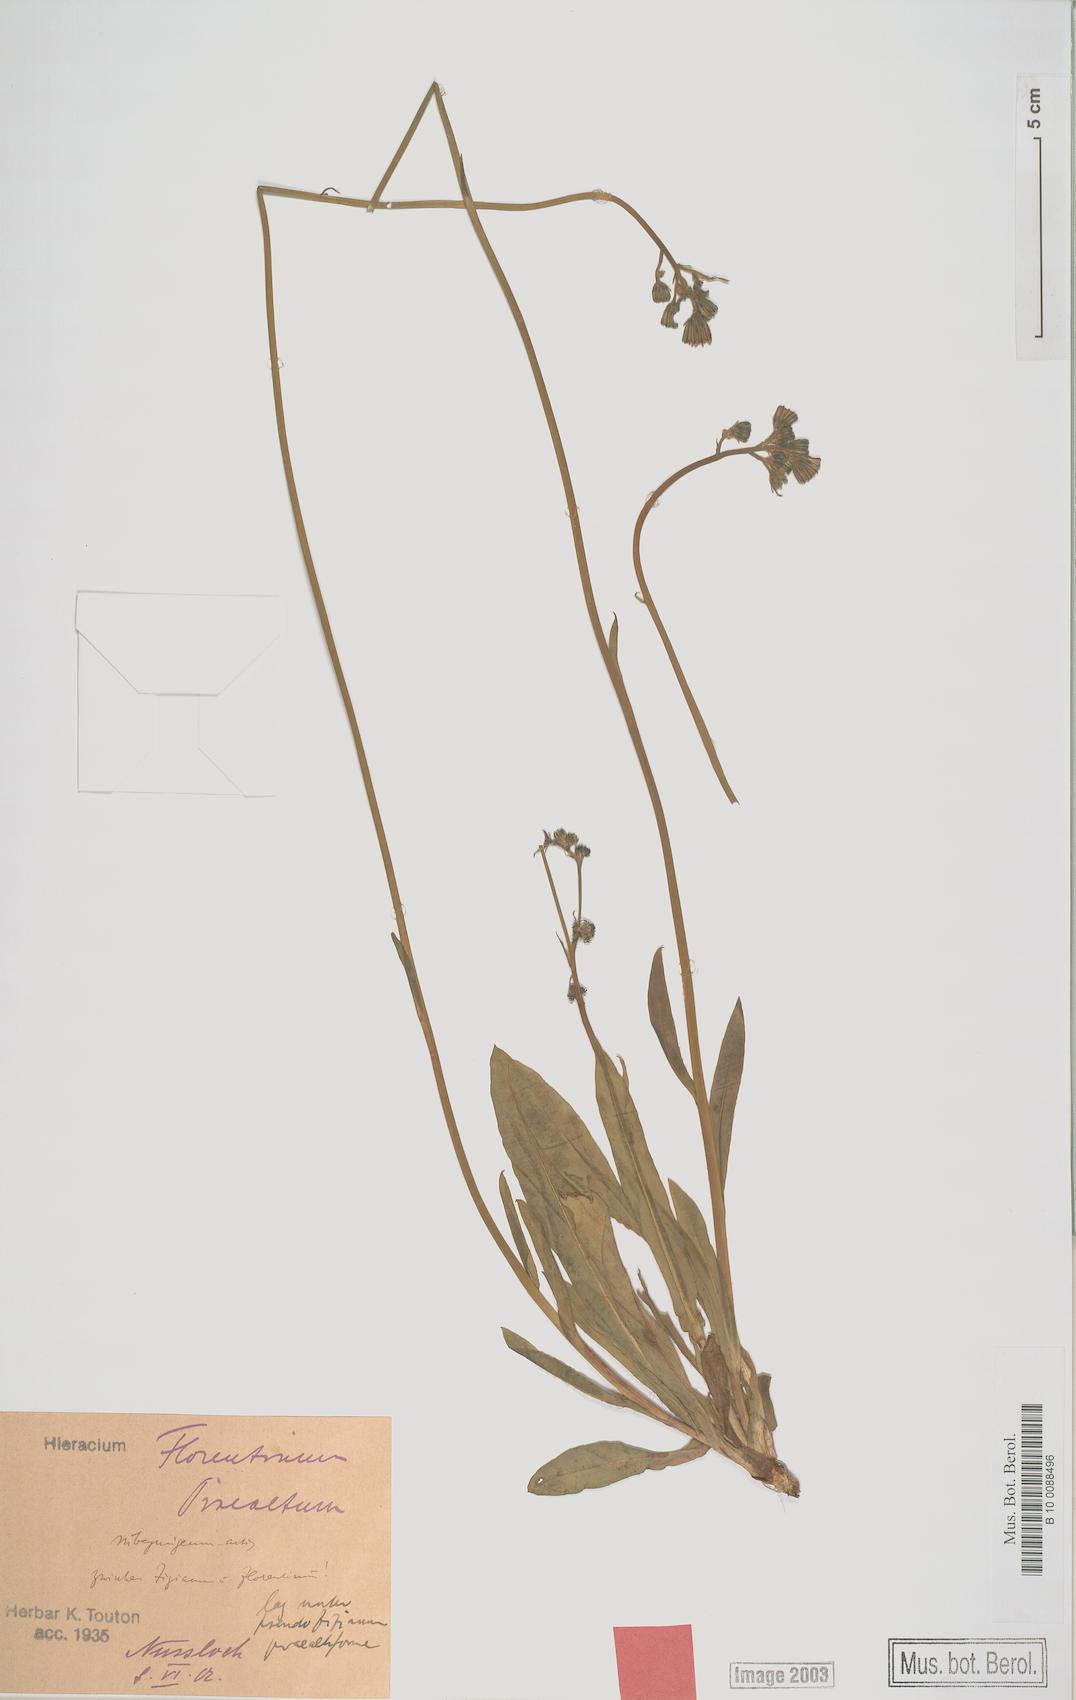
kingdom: Plantae
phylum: Tracheophyta
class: Magnoliopsida
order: Asterales
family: Asteraceae
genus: Hieracium
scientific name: Hieracium
